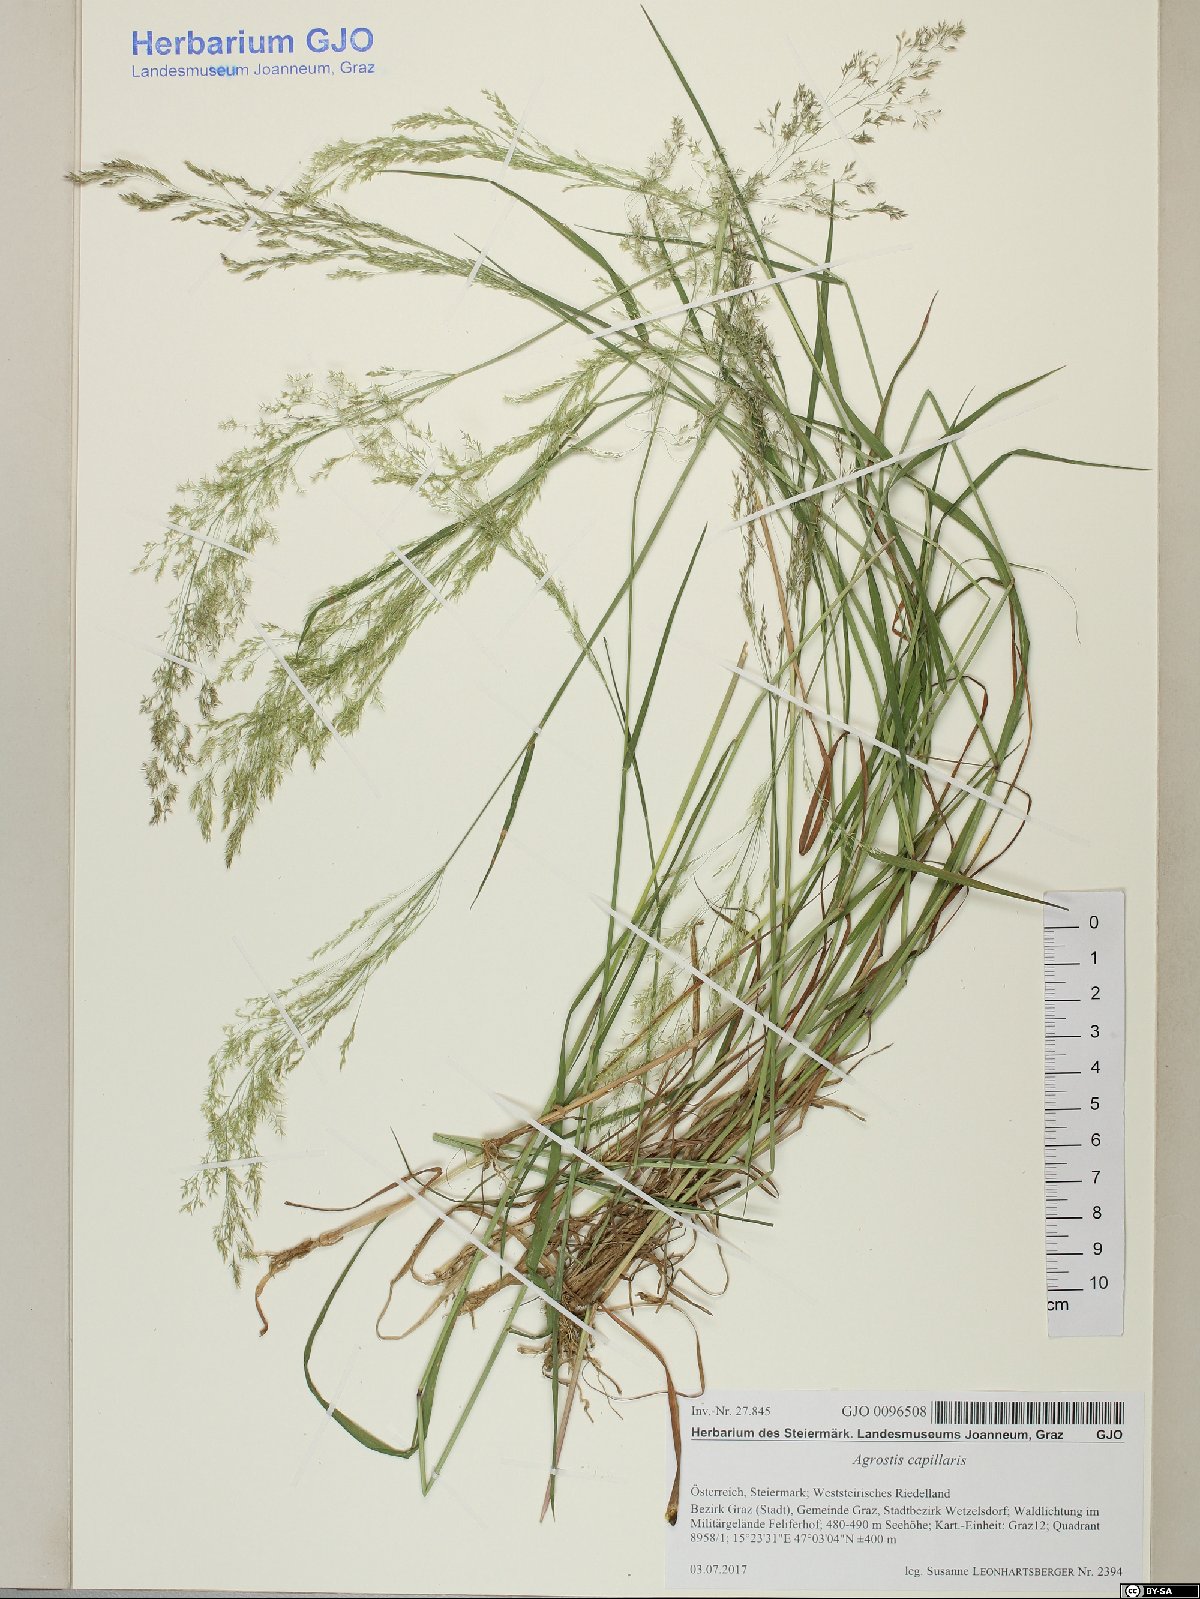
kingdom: Plantae
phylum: Tracheophyta
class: Liliopsida
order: Poales
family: Poaceae
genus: Agrostis
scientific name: Agrostis capillaris
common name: Colonial bentgrass
